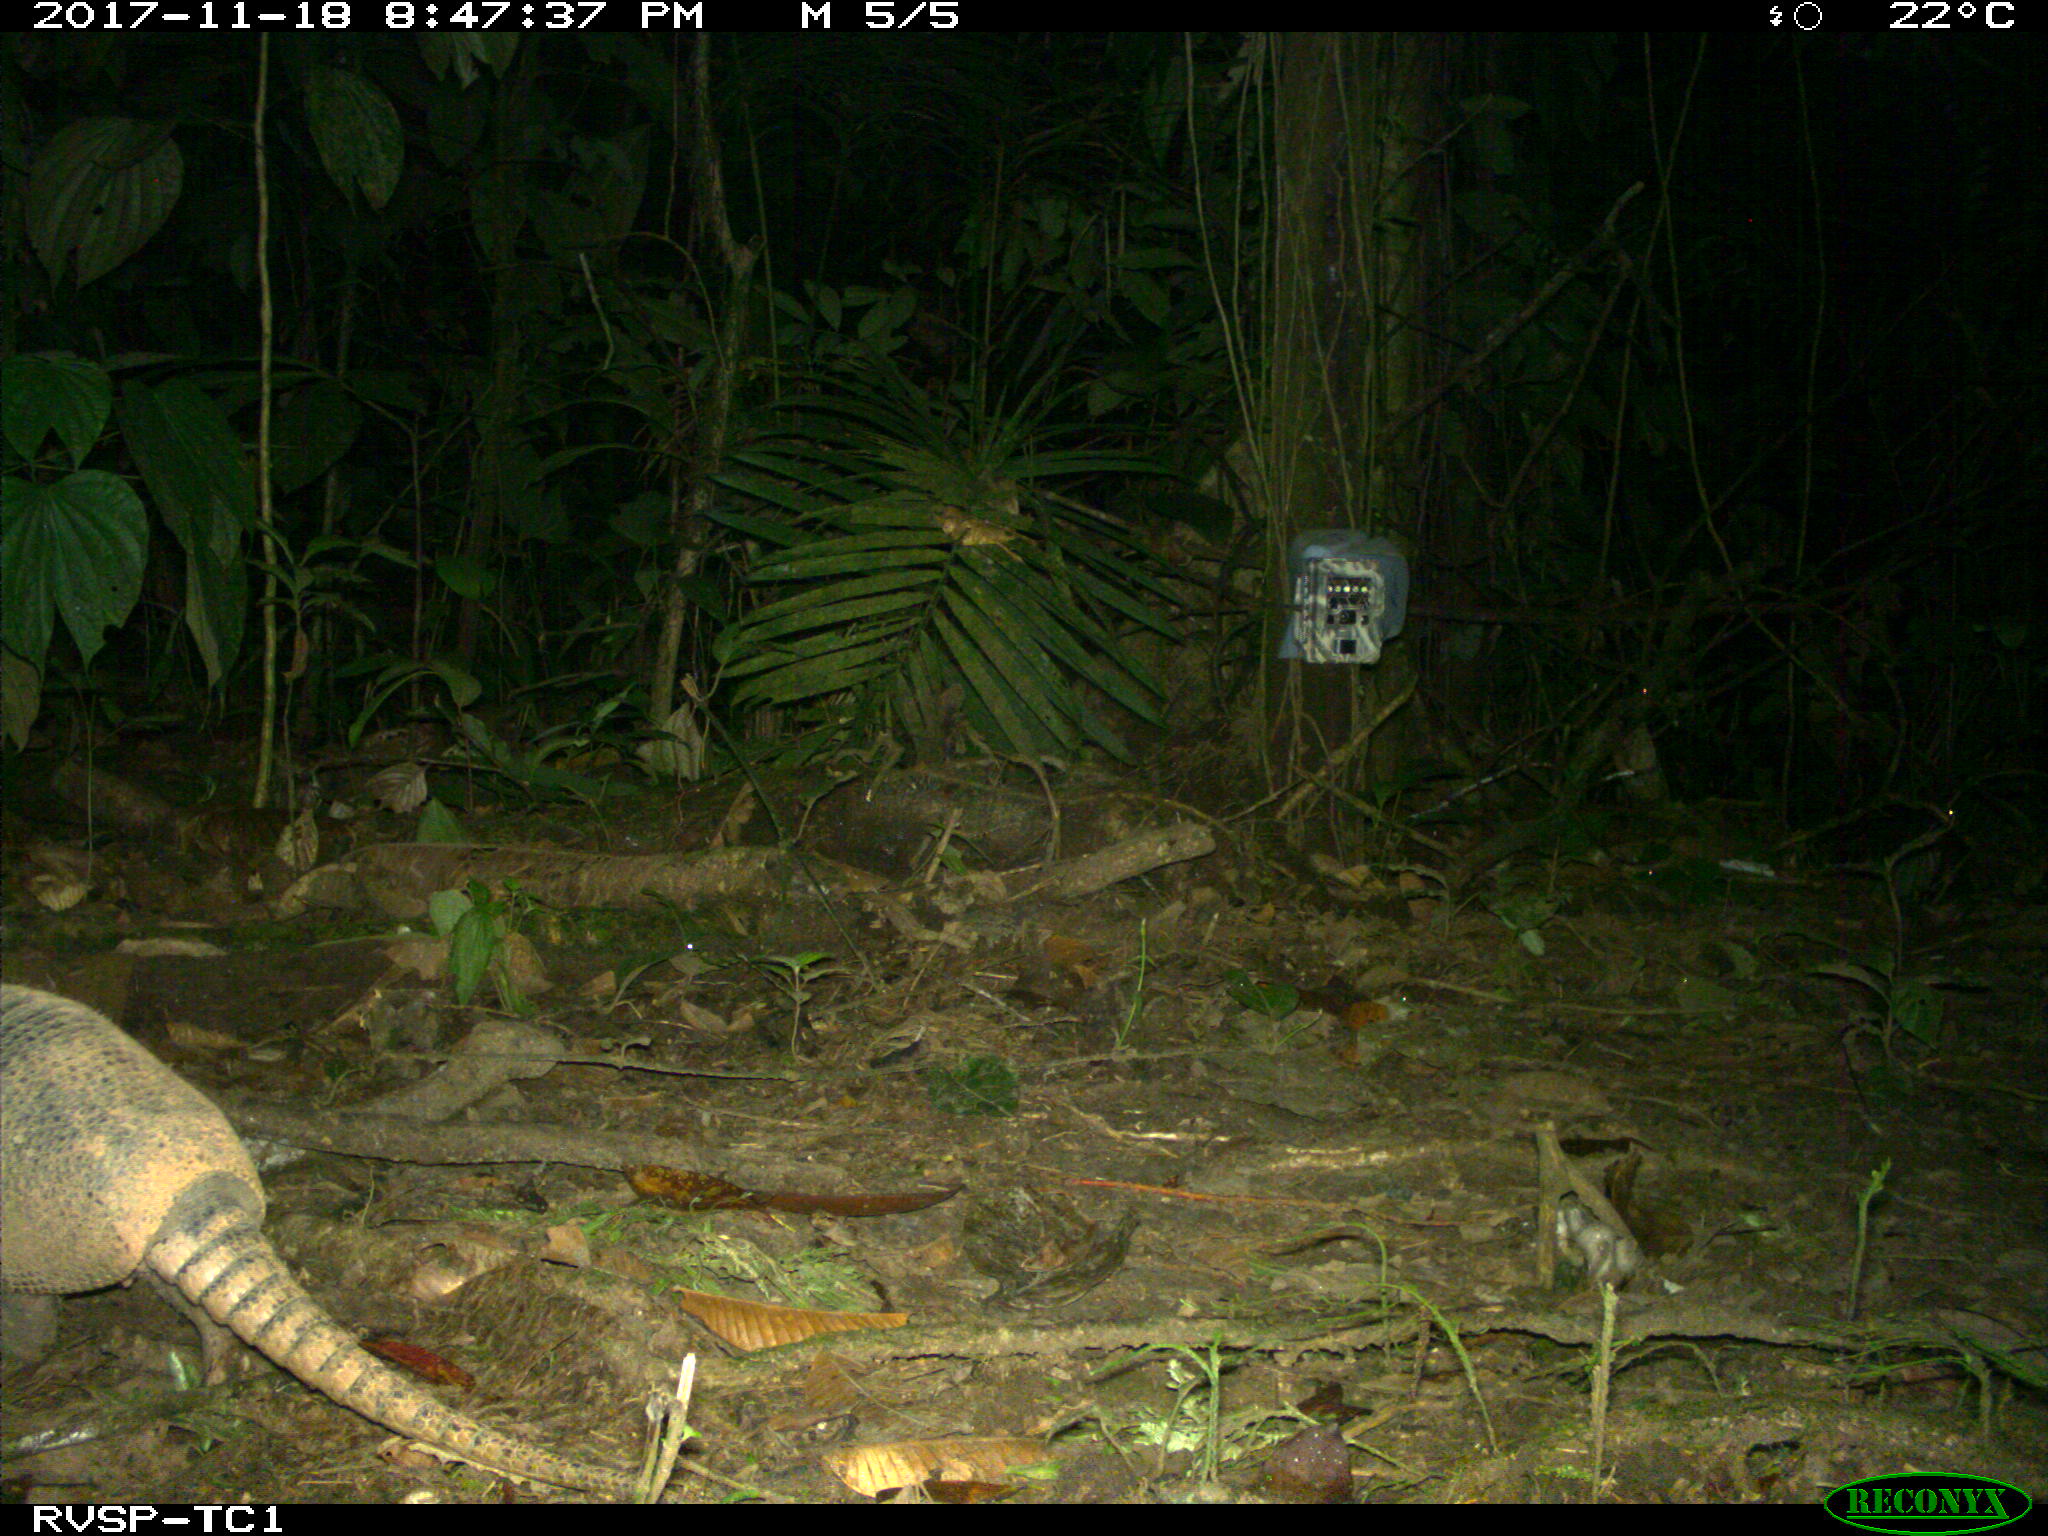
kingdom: Animalia
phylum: Chordata
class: Mammalia
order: Cingulata
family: Dasypodidae
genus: Dasypus
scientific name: Dasypus novemcinctus
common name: Nine-banded armadillo
